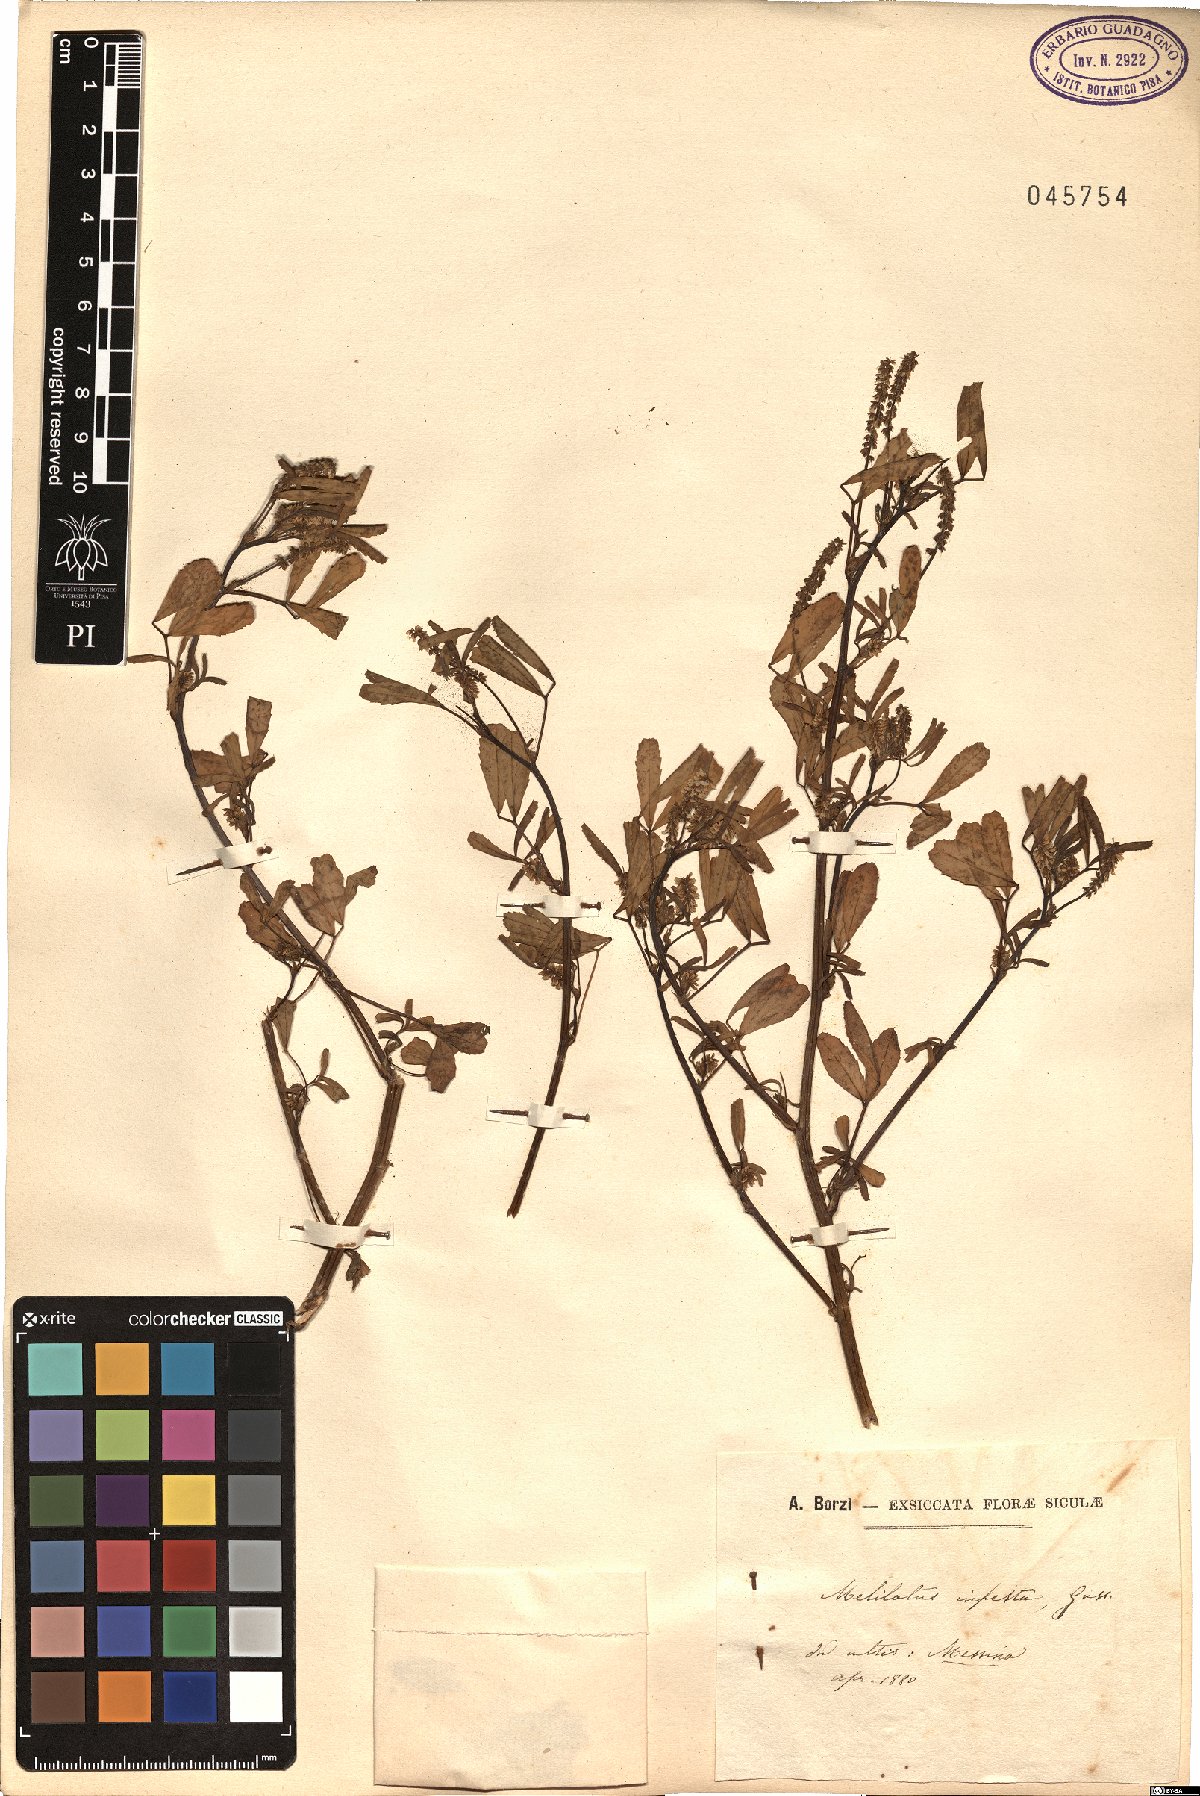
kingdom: Plantae
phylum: Tracheophyta
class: Magnoliopsida
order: Fabales
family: Fabaceae
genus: Melilotus
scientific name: Melilotus infestus
